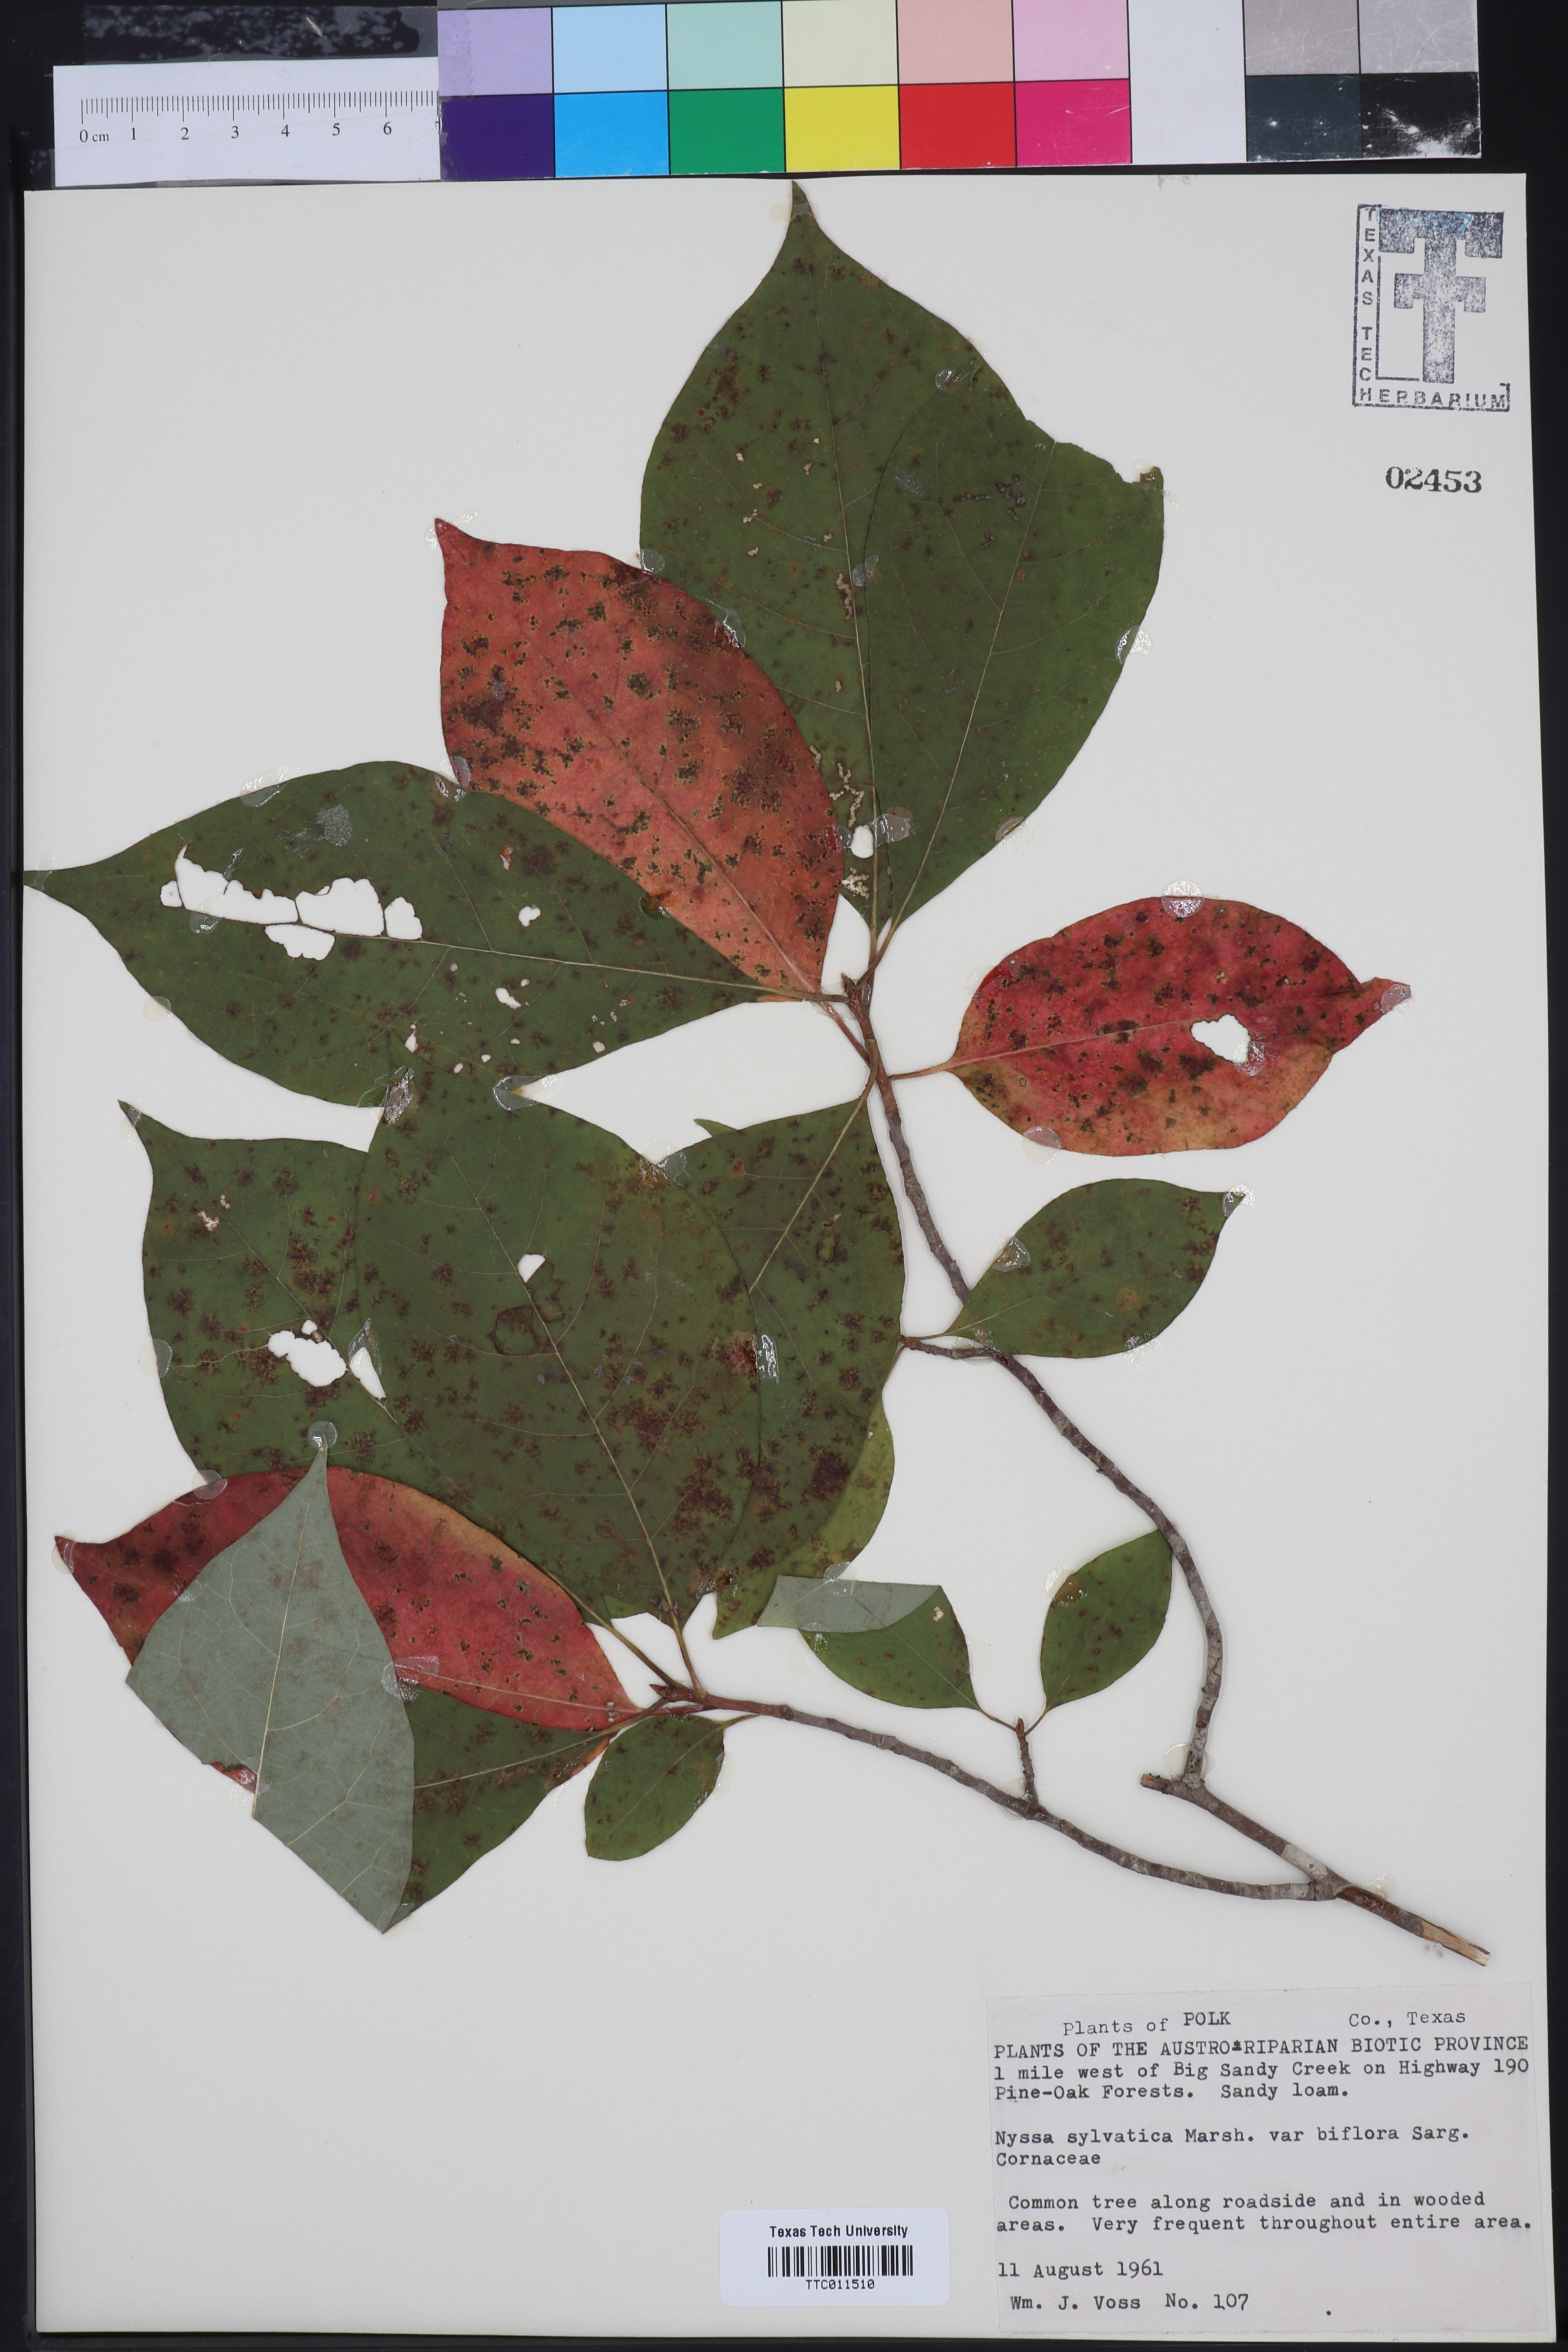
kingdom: Plantae
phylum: Tracheophyta
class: Magnoliopsida
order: Cornales
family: Nyssaceae
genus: Nyssa
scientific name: Nyssa sylvatica
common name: Black tupelo
